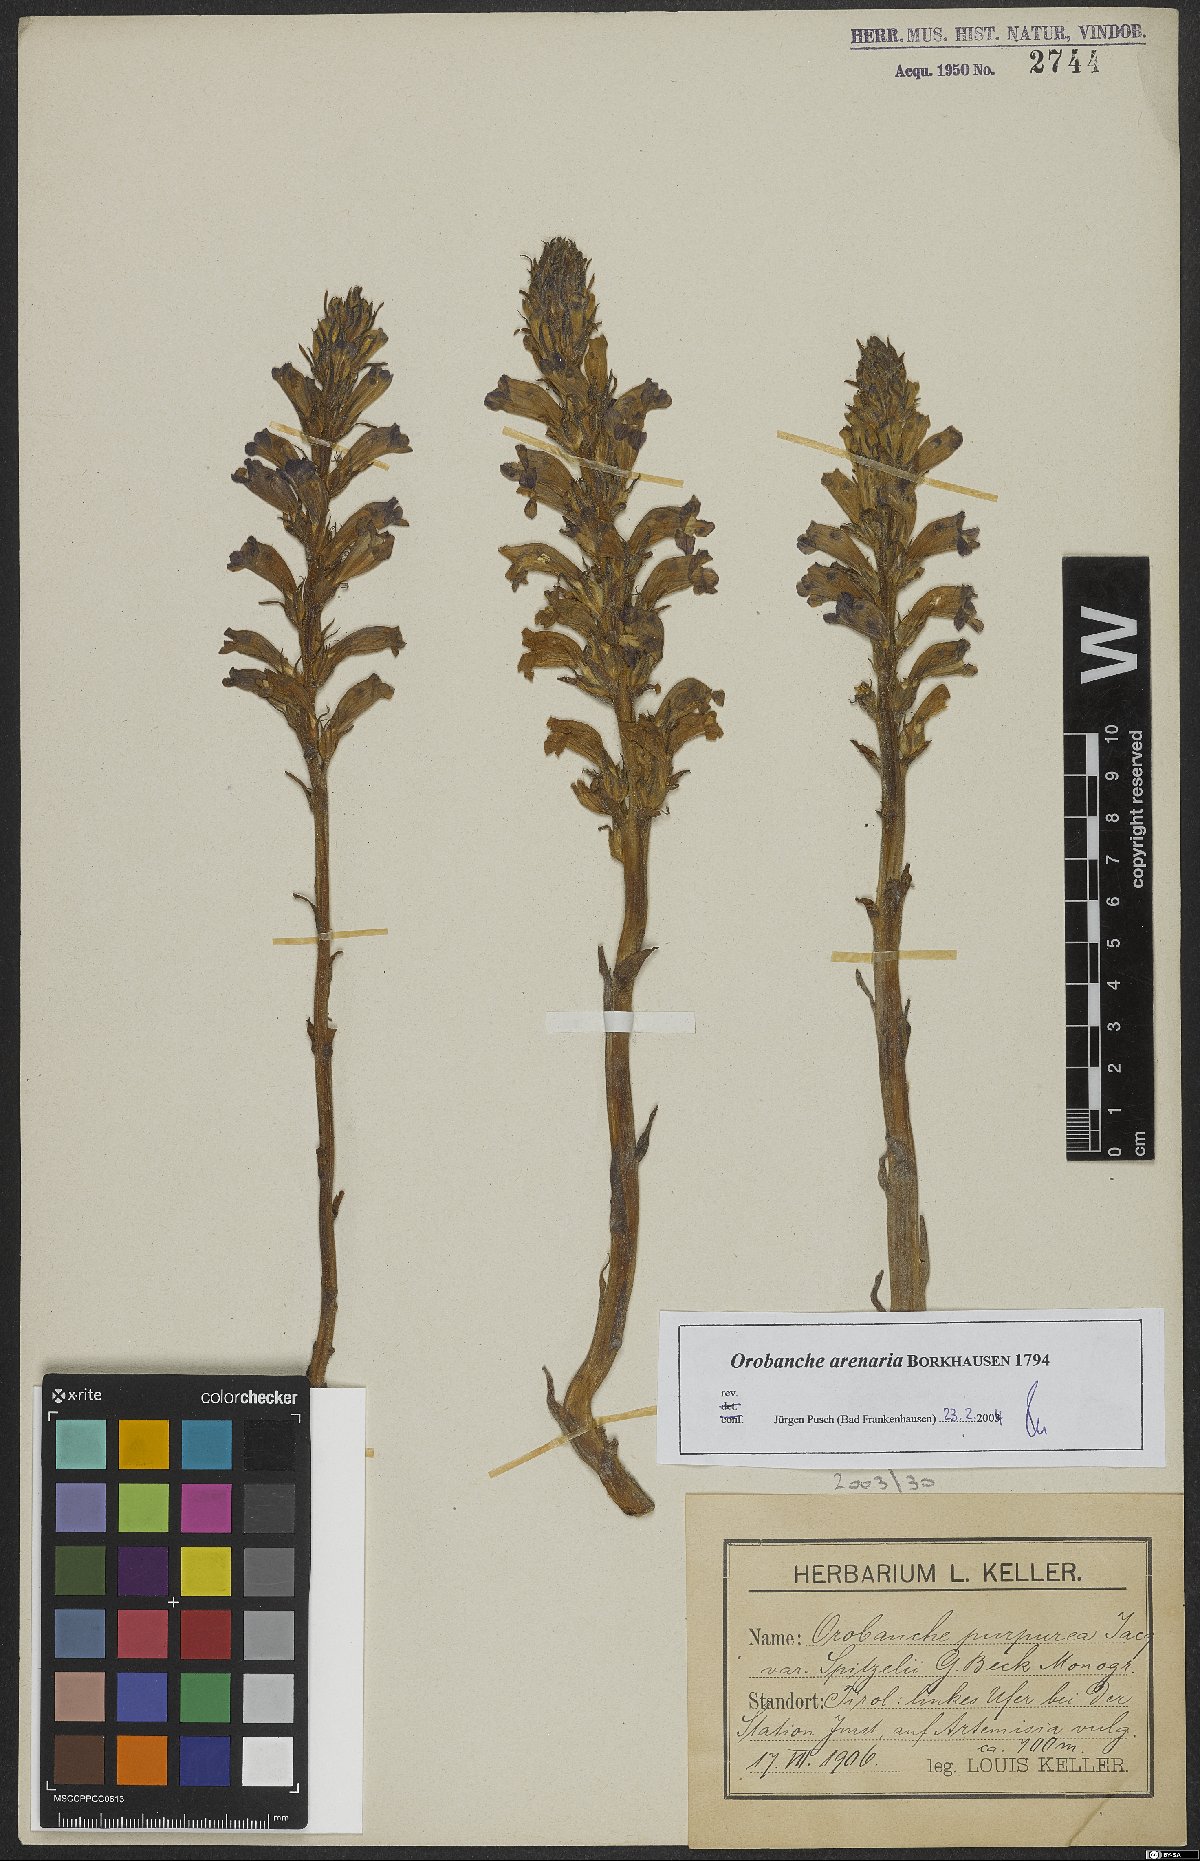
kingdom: Plantae
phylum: Tracheophyta
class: Magnoliopsida
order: Lamiales
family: Orobanchaceae
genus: Phelipanche
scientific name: Phelipanche arenaria
